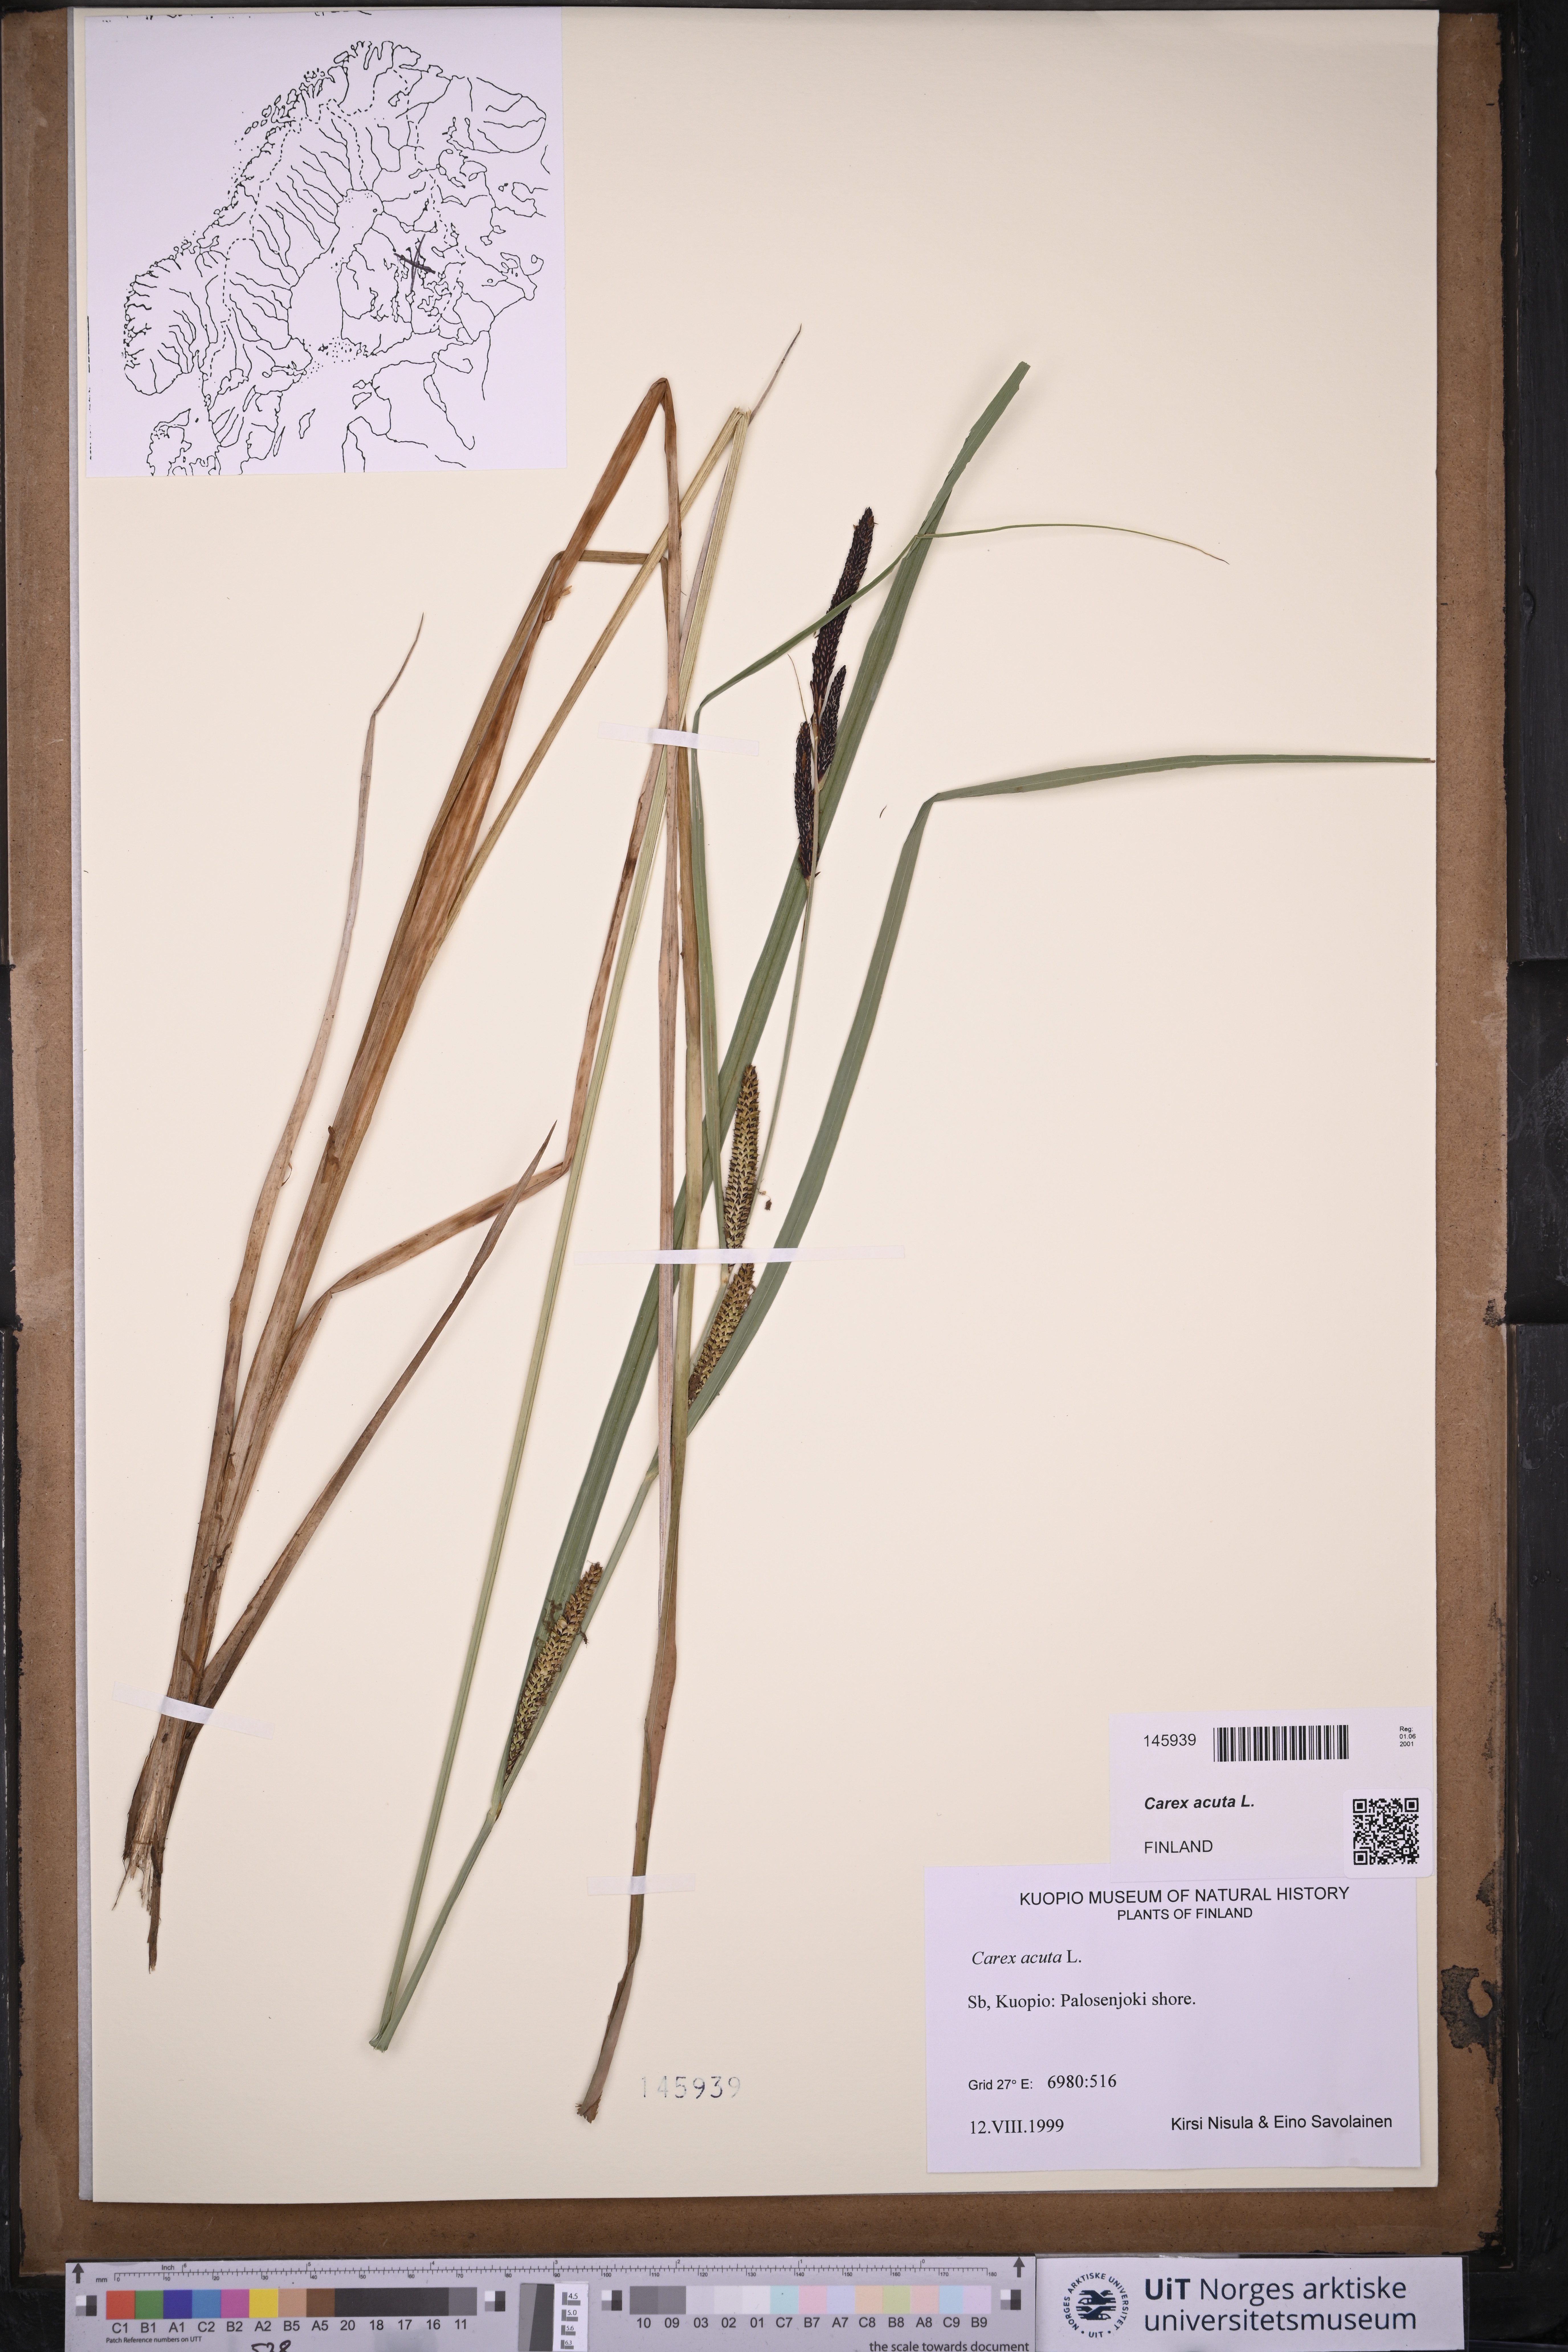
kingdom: Plantae
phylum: Tracheophyta
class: Liliopsida
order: Poales
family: Cyperaceae
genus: Carex
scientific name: Carex acuta
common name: Slender tufted-sedge
